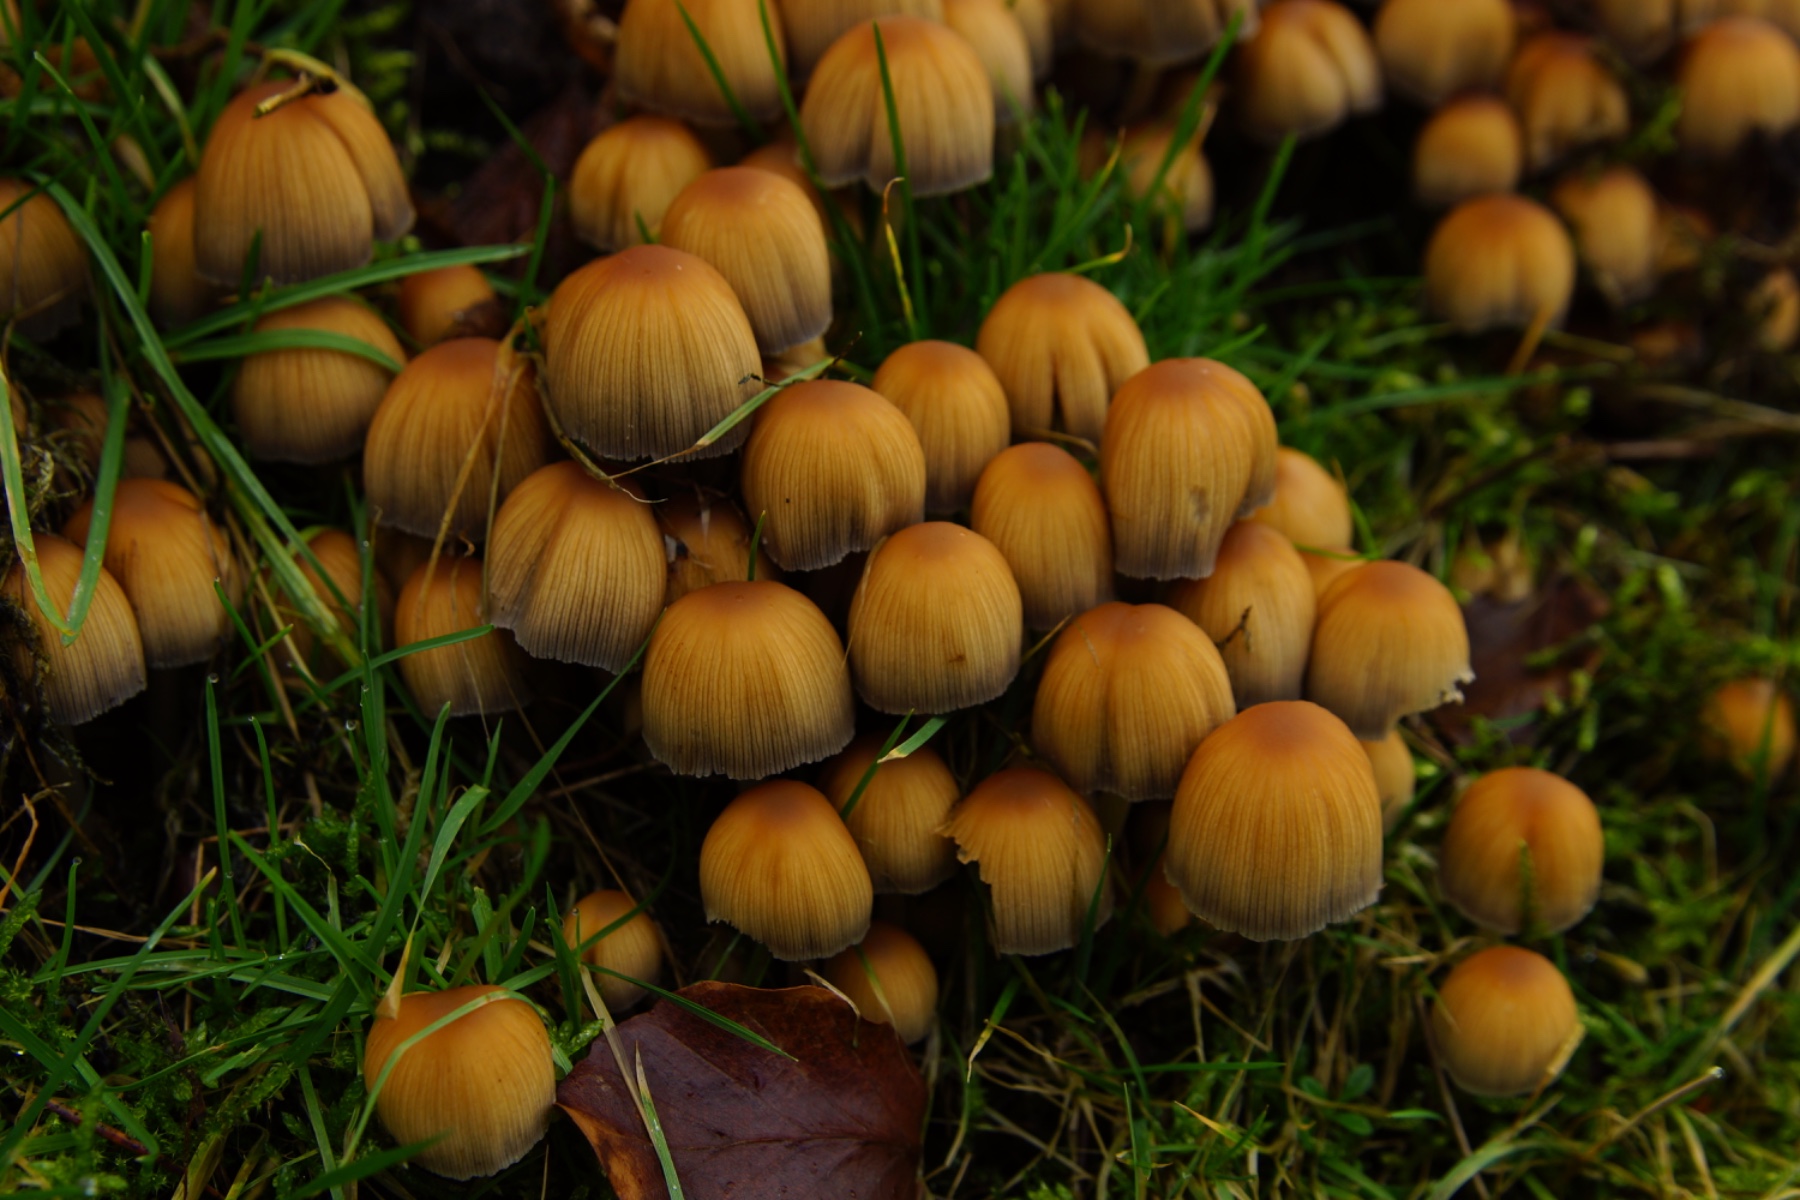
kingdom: Fungi
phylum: Basidiomycota
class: Agaricomycetes
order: Agaricales
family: Psathyrellaceae
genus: Coprinellus
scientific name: Coprinellus micaceus
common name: glimmer-blækhat
